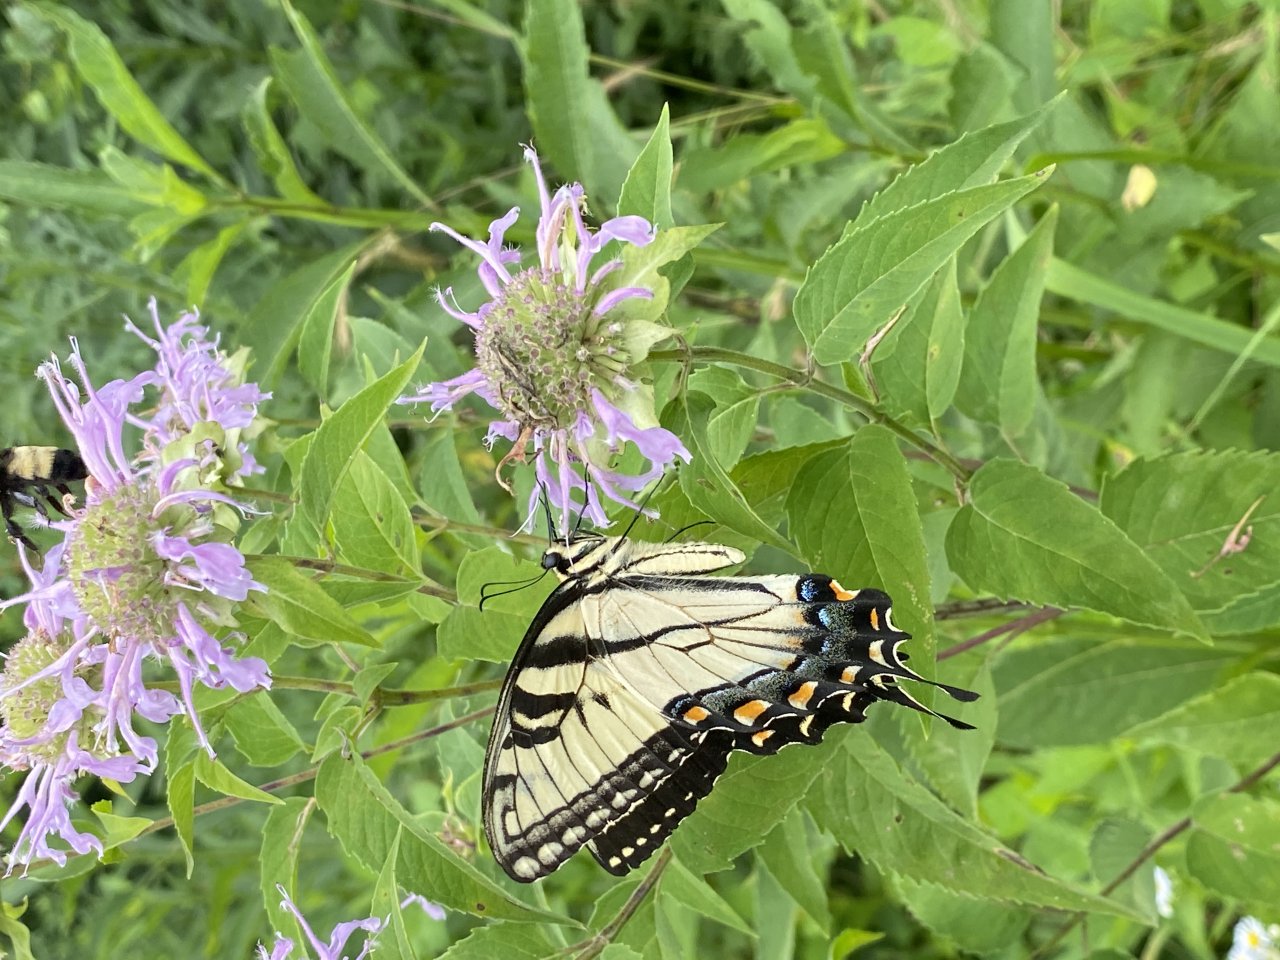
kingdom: Animalia
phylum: Arthropoda
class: Insecta
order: Lepidoptera
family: Papilionidae
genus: Pterourus
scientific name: Pterourus glaucus
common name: Eastern Tiger Swallowtail
